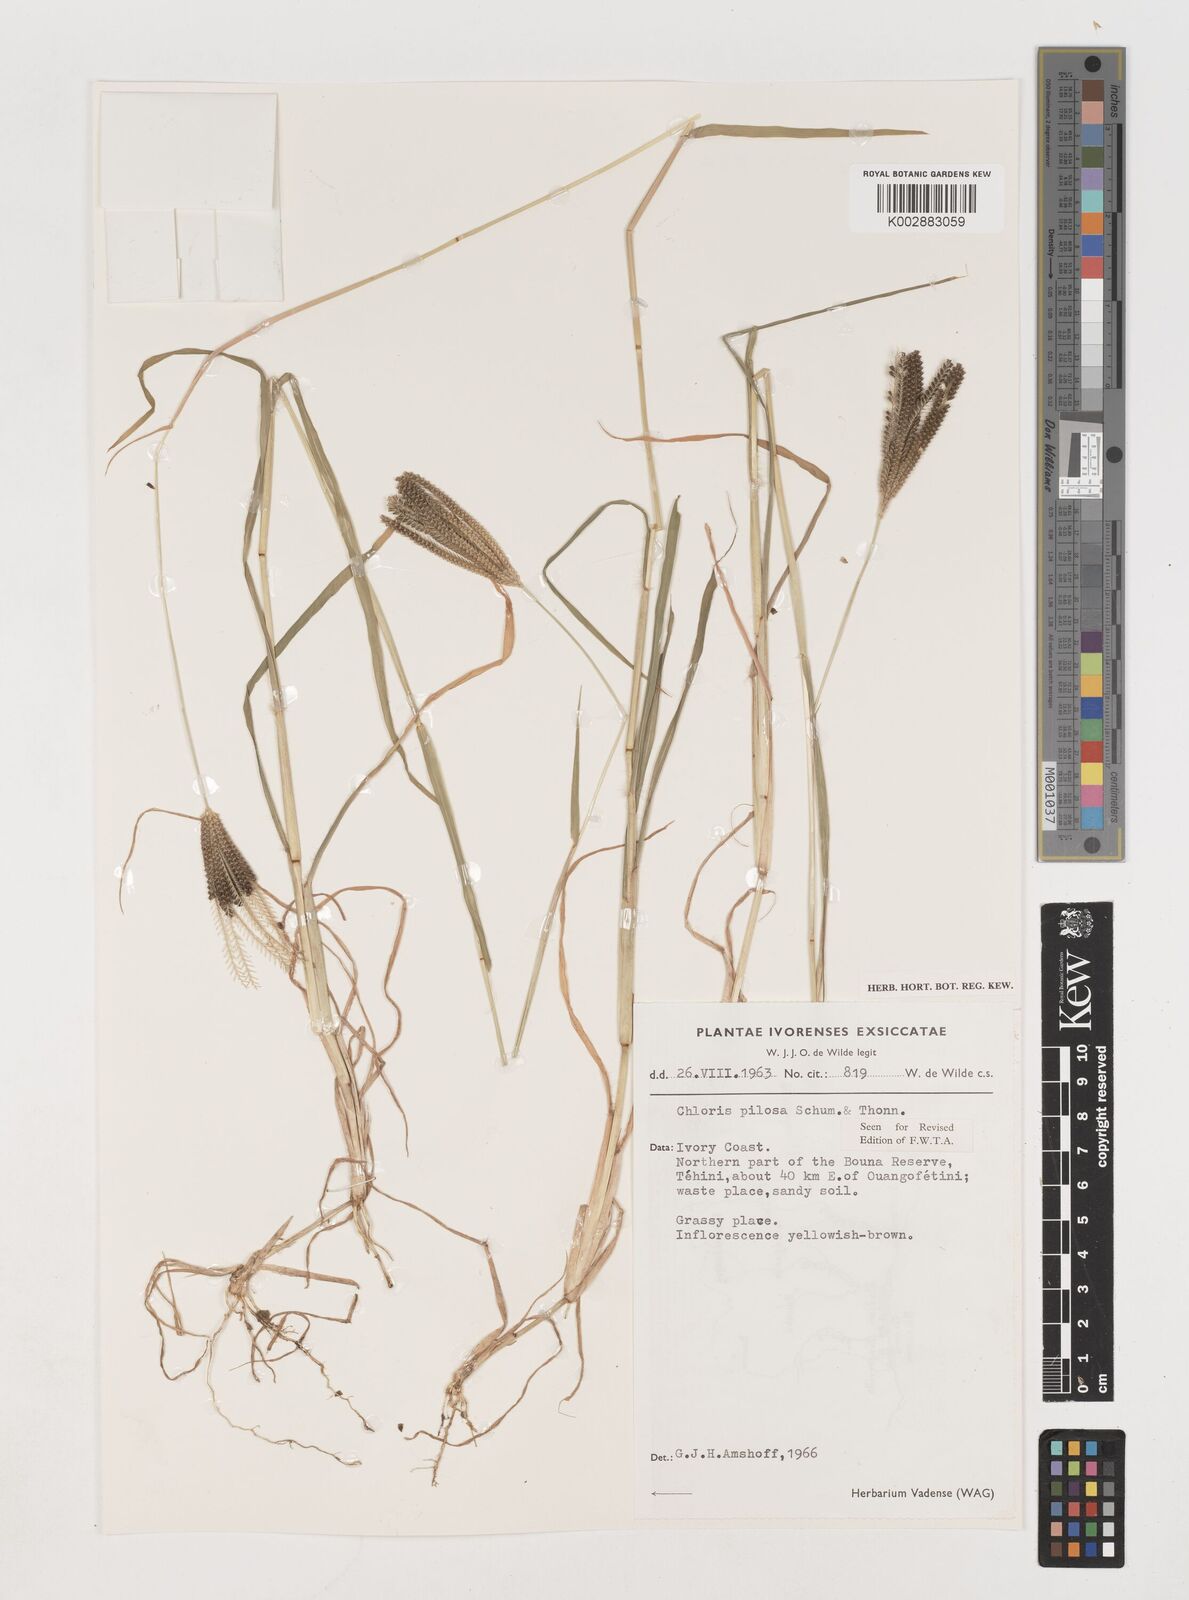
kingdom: Plantae
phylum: Tracheophyta
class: Liliopsida
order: Poales
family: Poaceae
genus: Chloris
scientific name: Chloris pilosa
